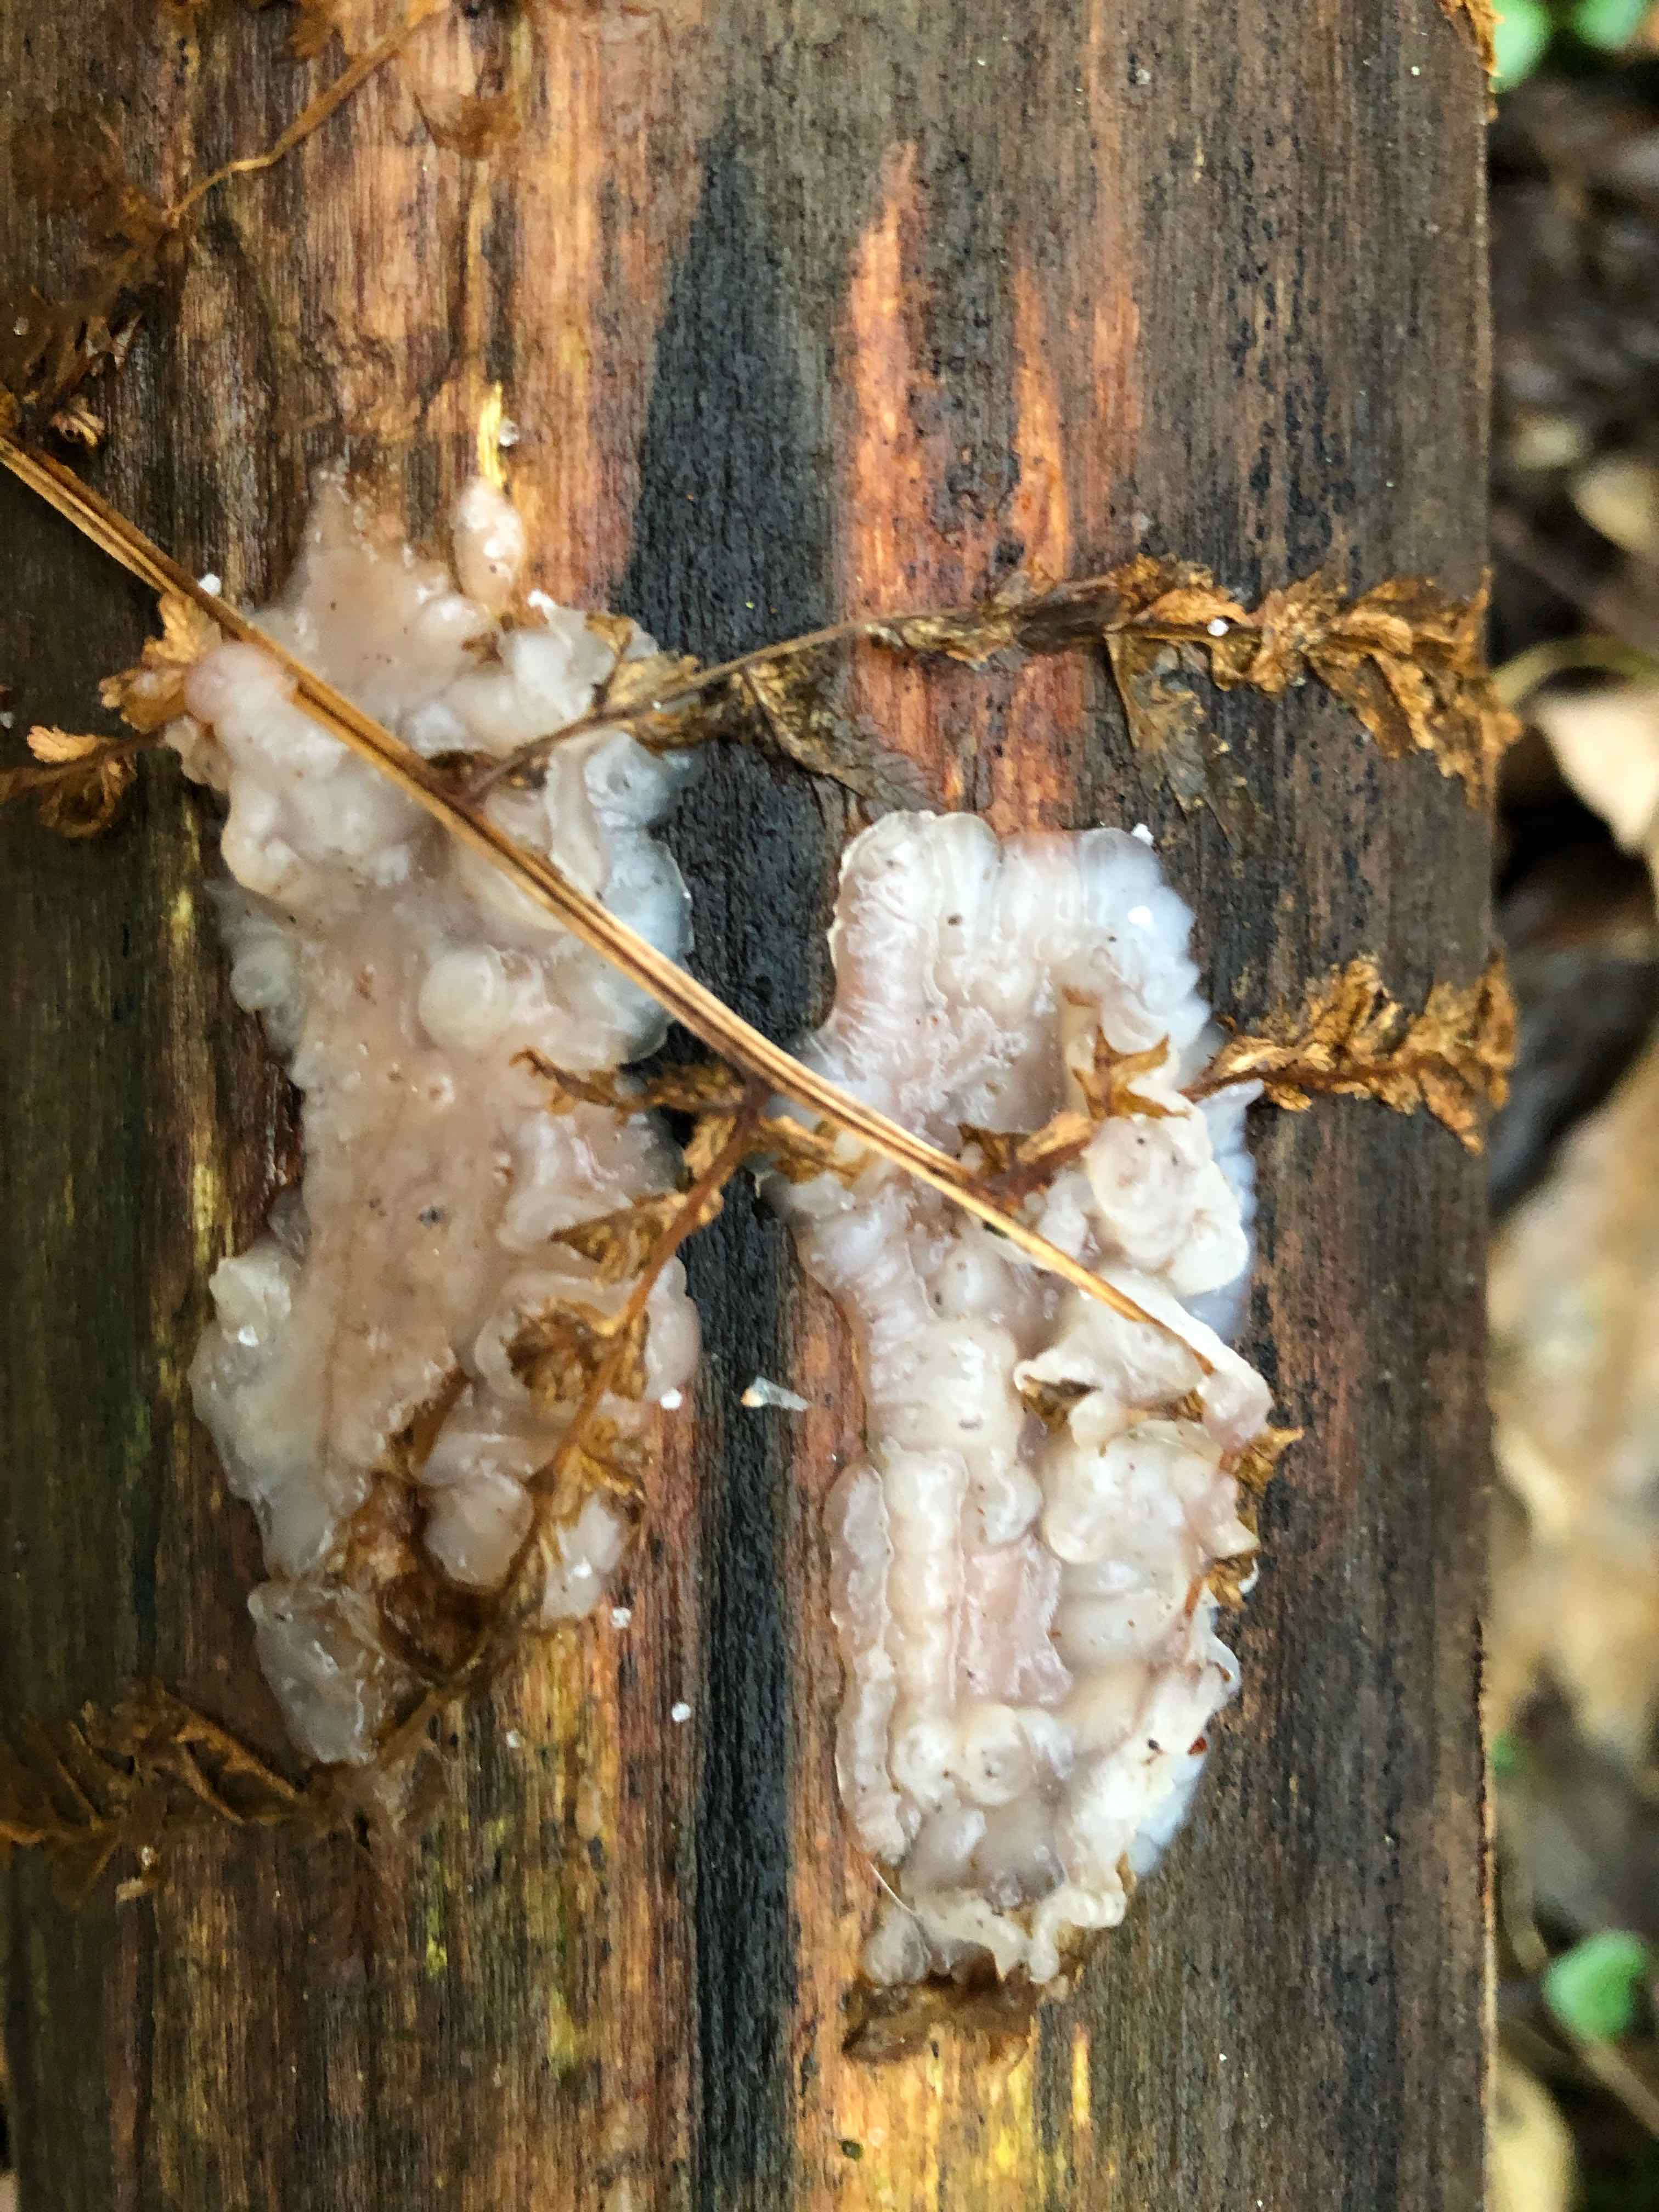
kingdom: Fungi
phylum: Basidiomycota
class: Agaricomycetes
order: Auriculariales
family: Auriculariaceae
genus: Exidia
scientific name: Exidia thuretiana
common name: hvidlig bævretop
